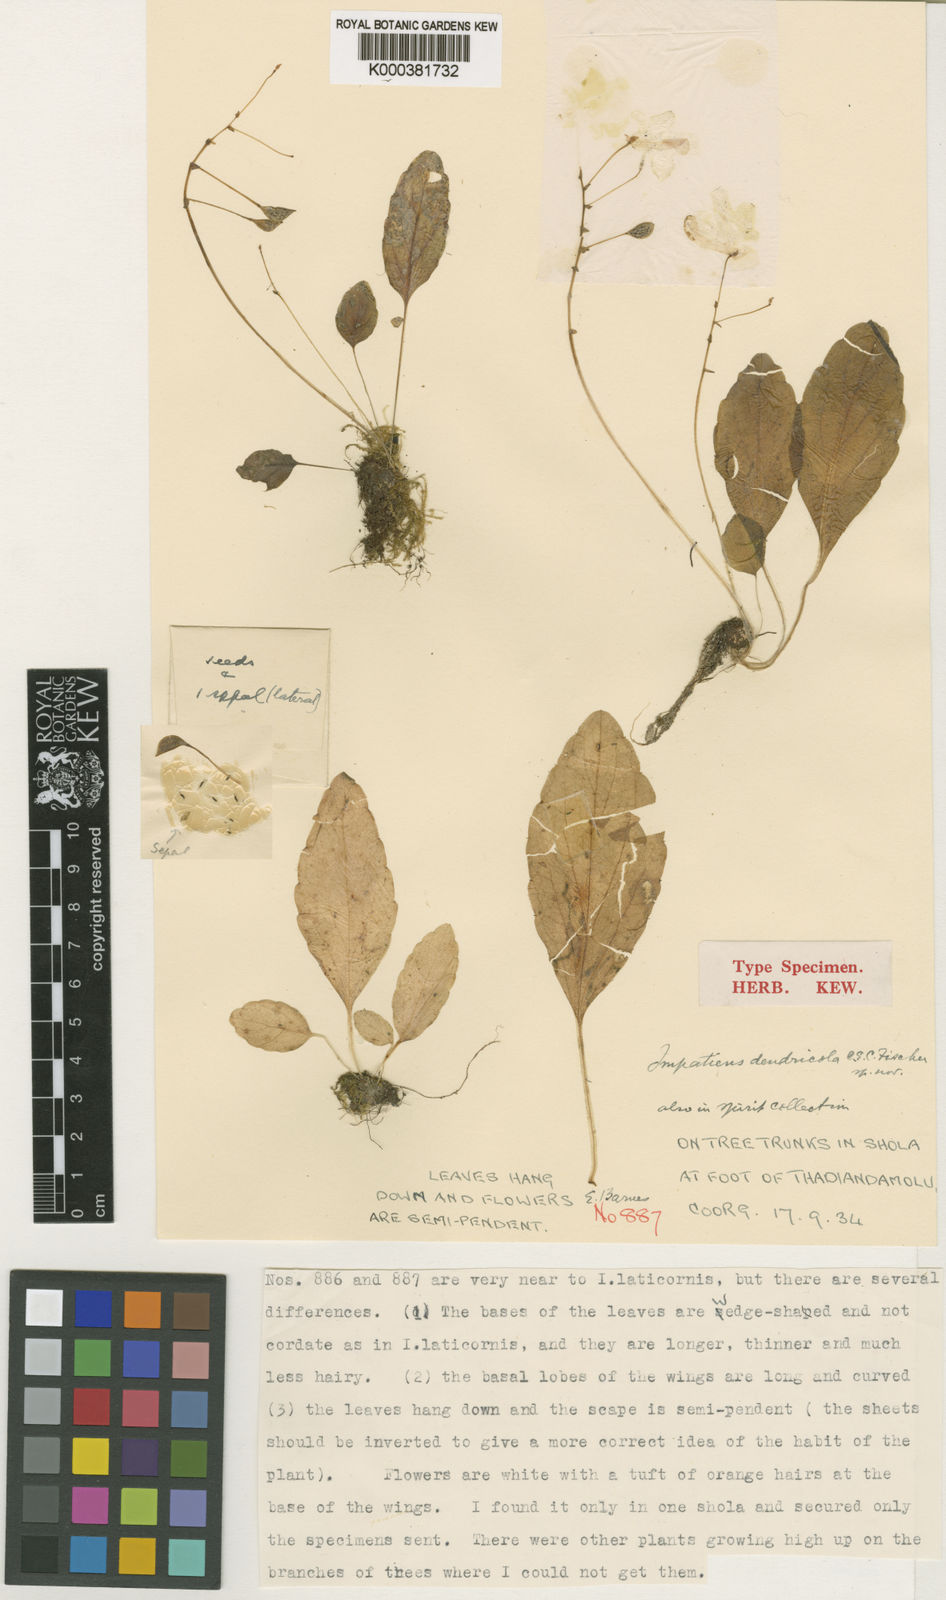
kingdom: Plantae
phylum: Tracheophyta
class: Magnoliopsida
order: Ericales
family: Balsaminaceae
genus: Impatiens
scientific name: Impatiens dendricola
